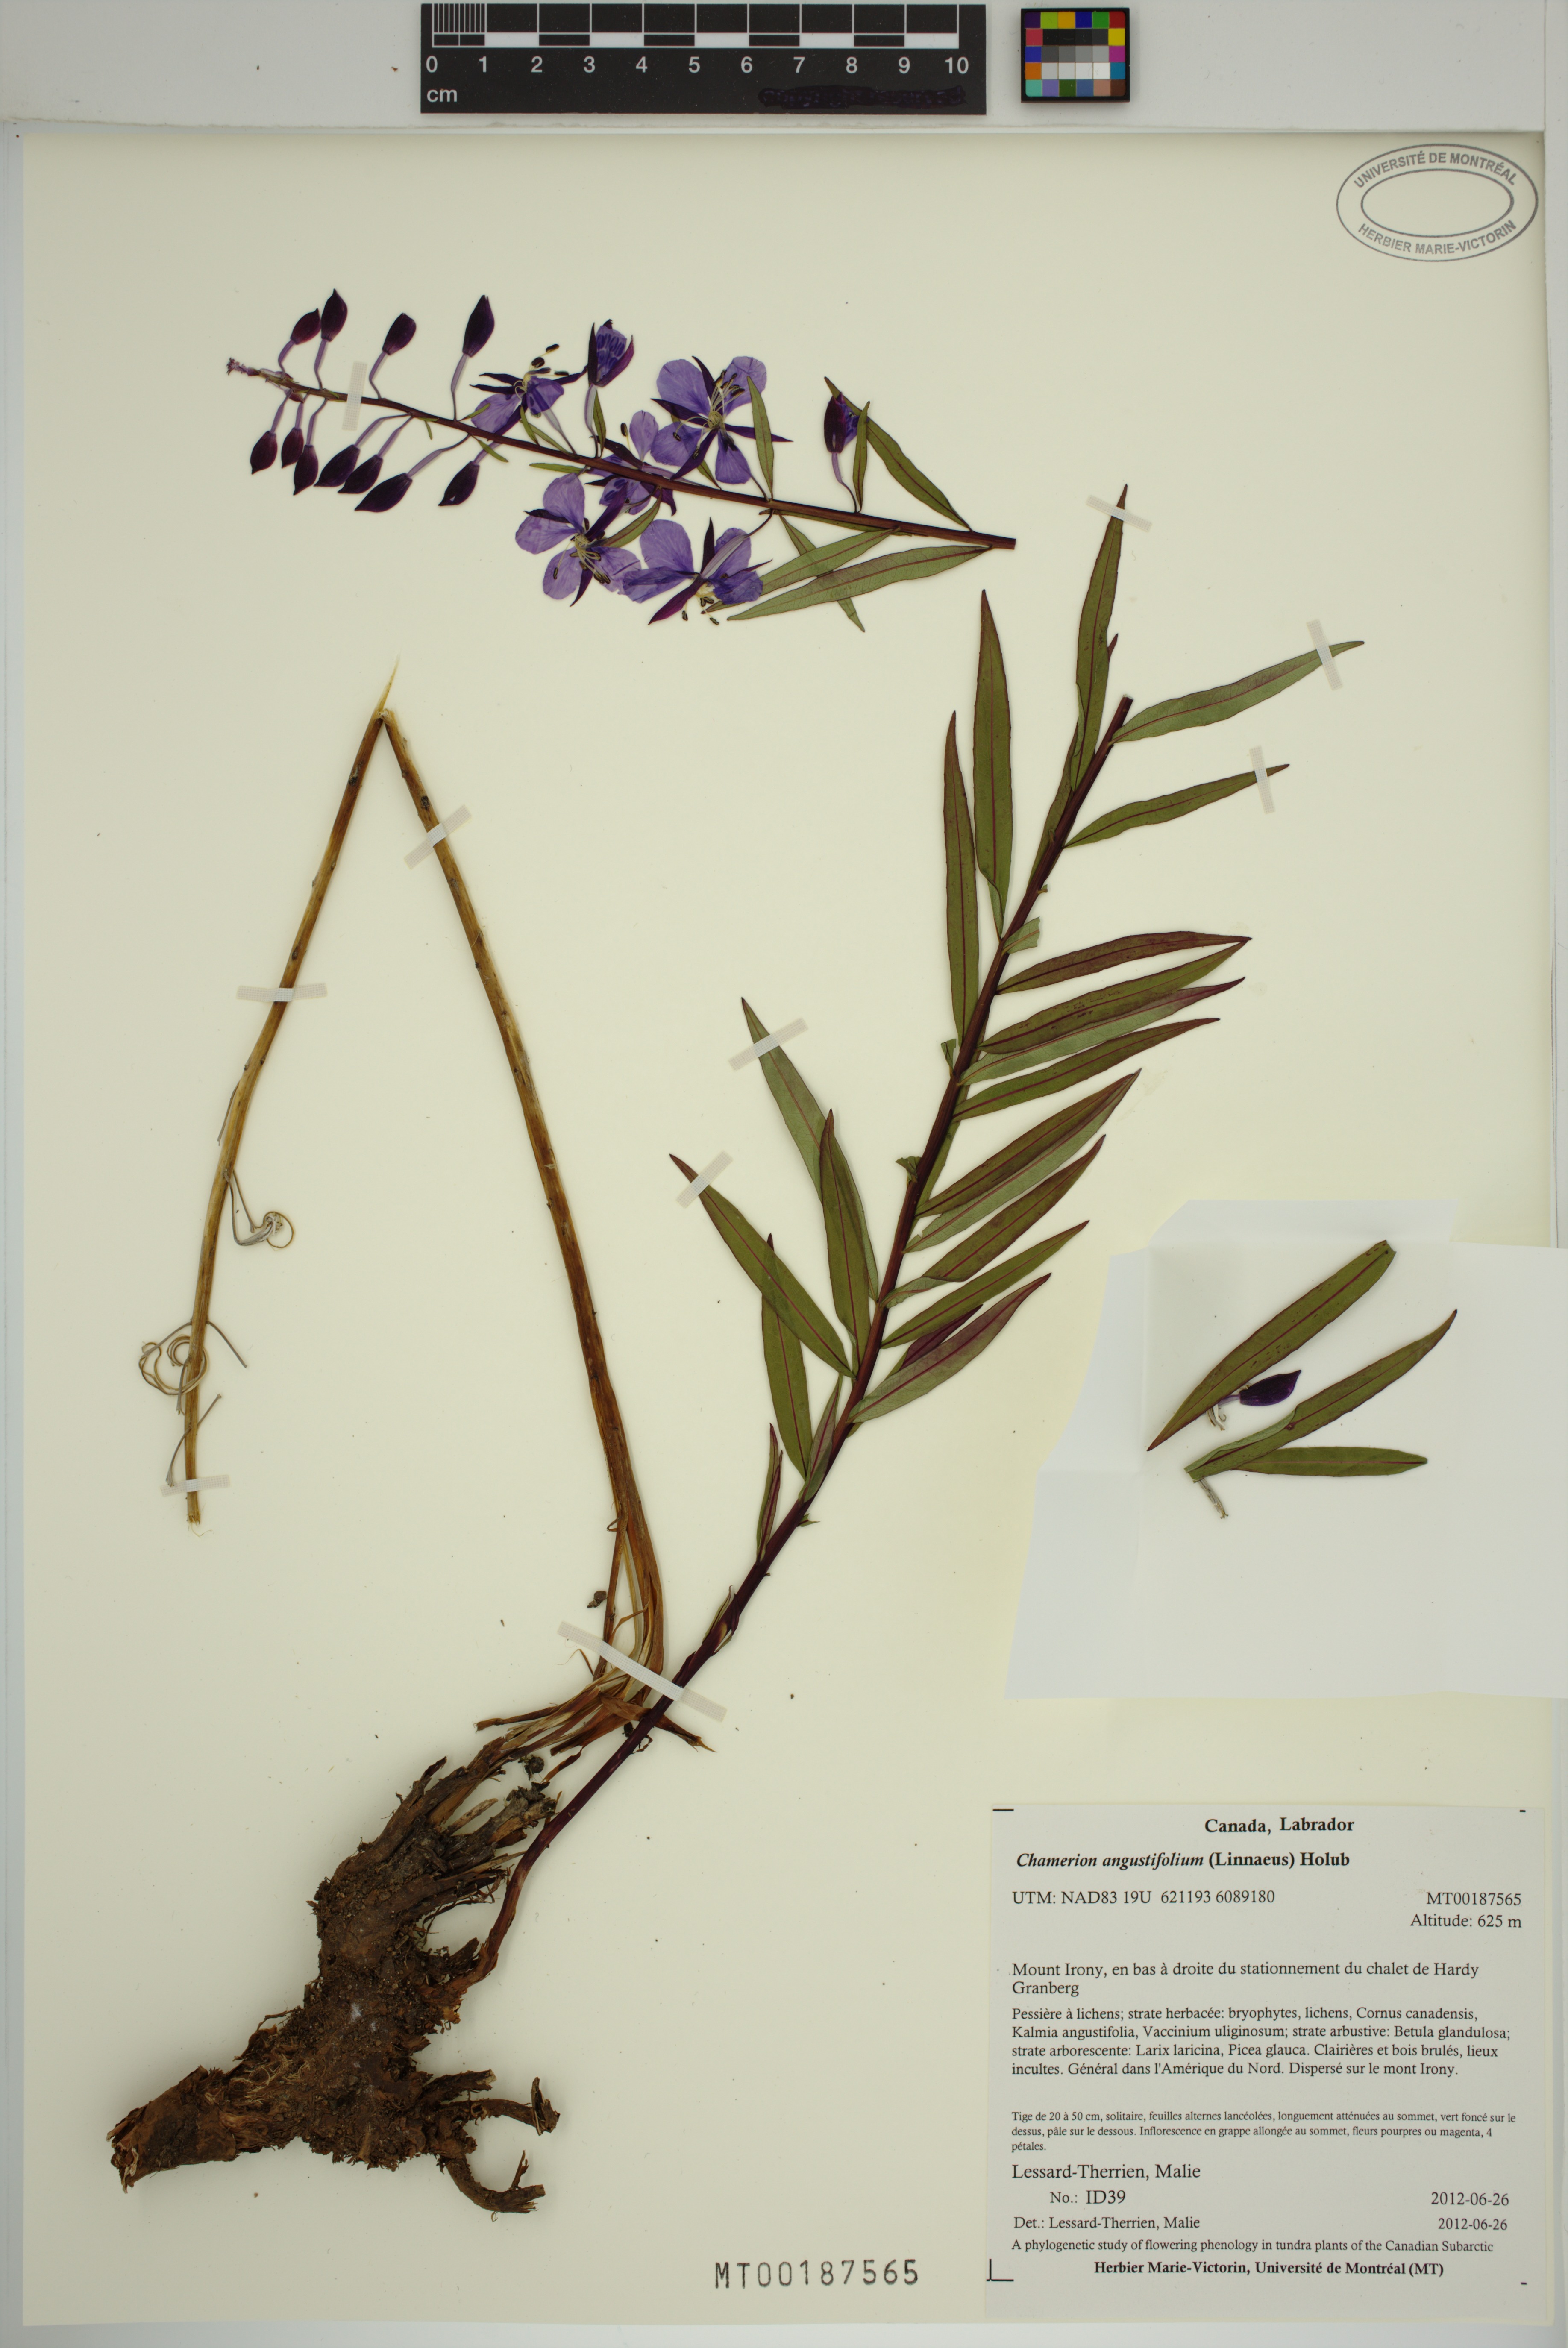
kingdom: Plantae
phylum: Tracheophyta
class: Magnoliopsida
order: Myrtales
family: Onagraceae
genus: Chamaenerion
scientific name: Chamaenerion angustifolium
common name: Fireweed
